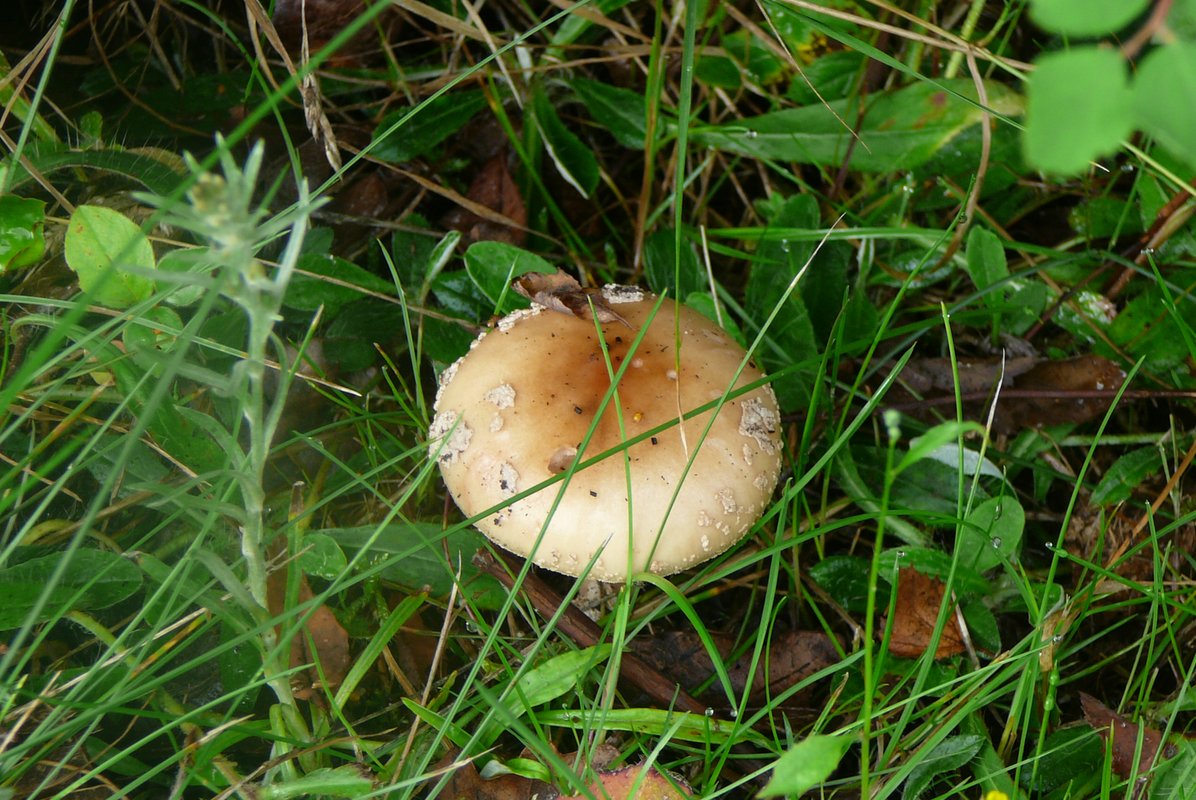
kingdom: Fungi
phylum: Basidiomycota
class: Agaricomycetes
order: Agaricales
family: Amanitaceae
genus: Amanita
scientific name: Amanita rubescens
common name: rødmende fluesvamp
